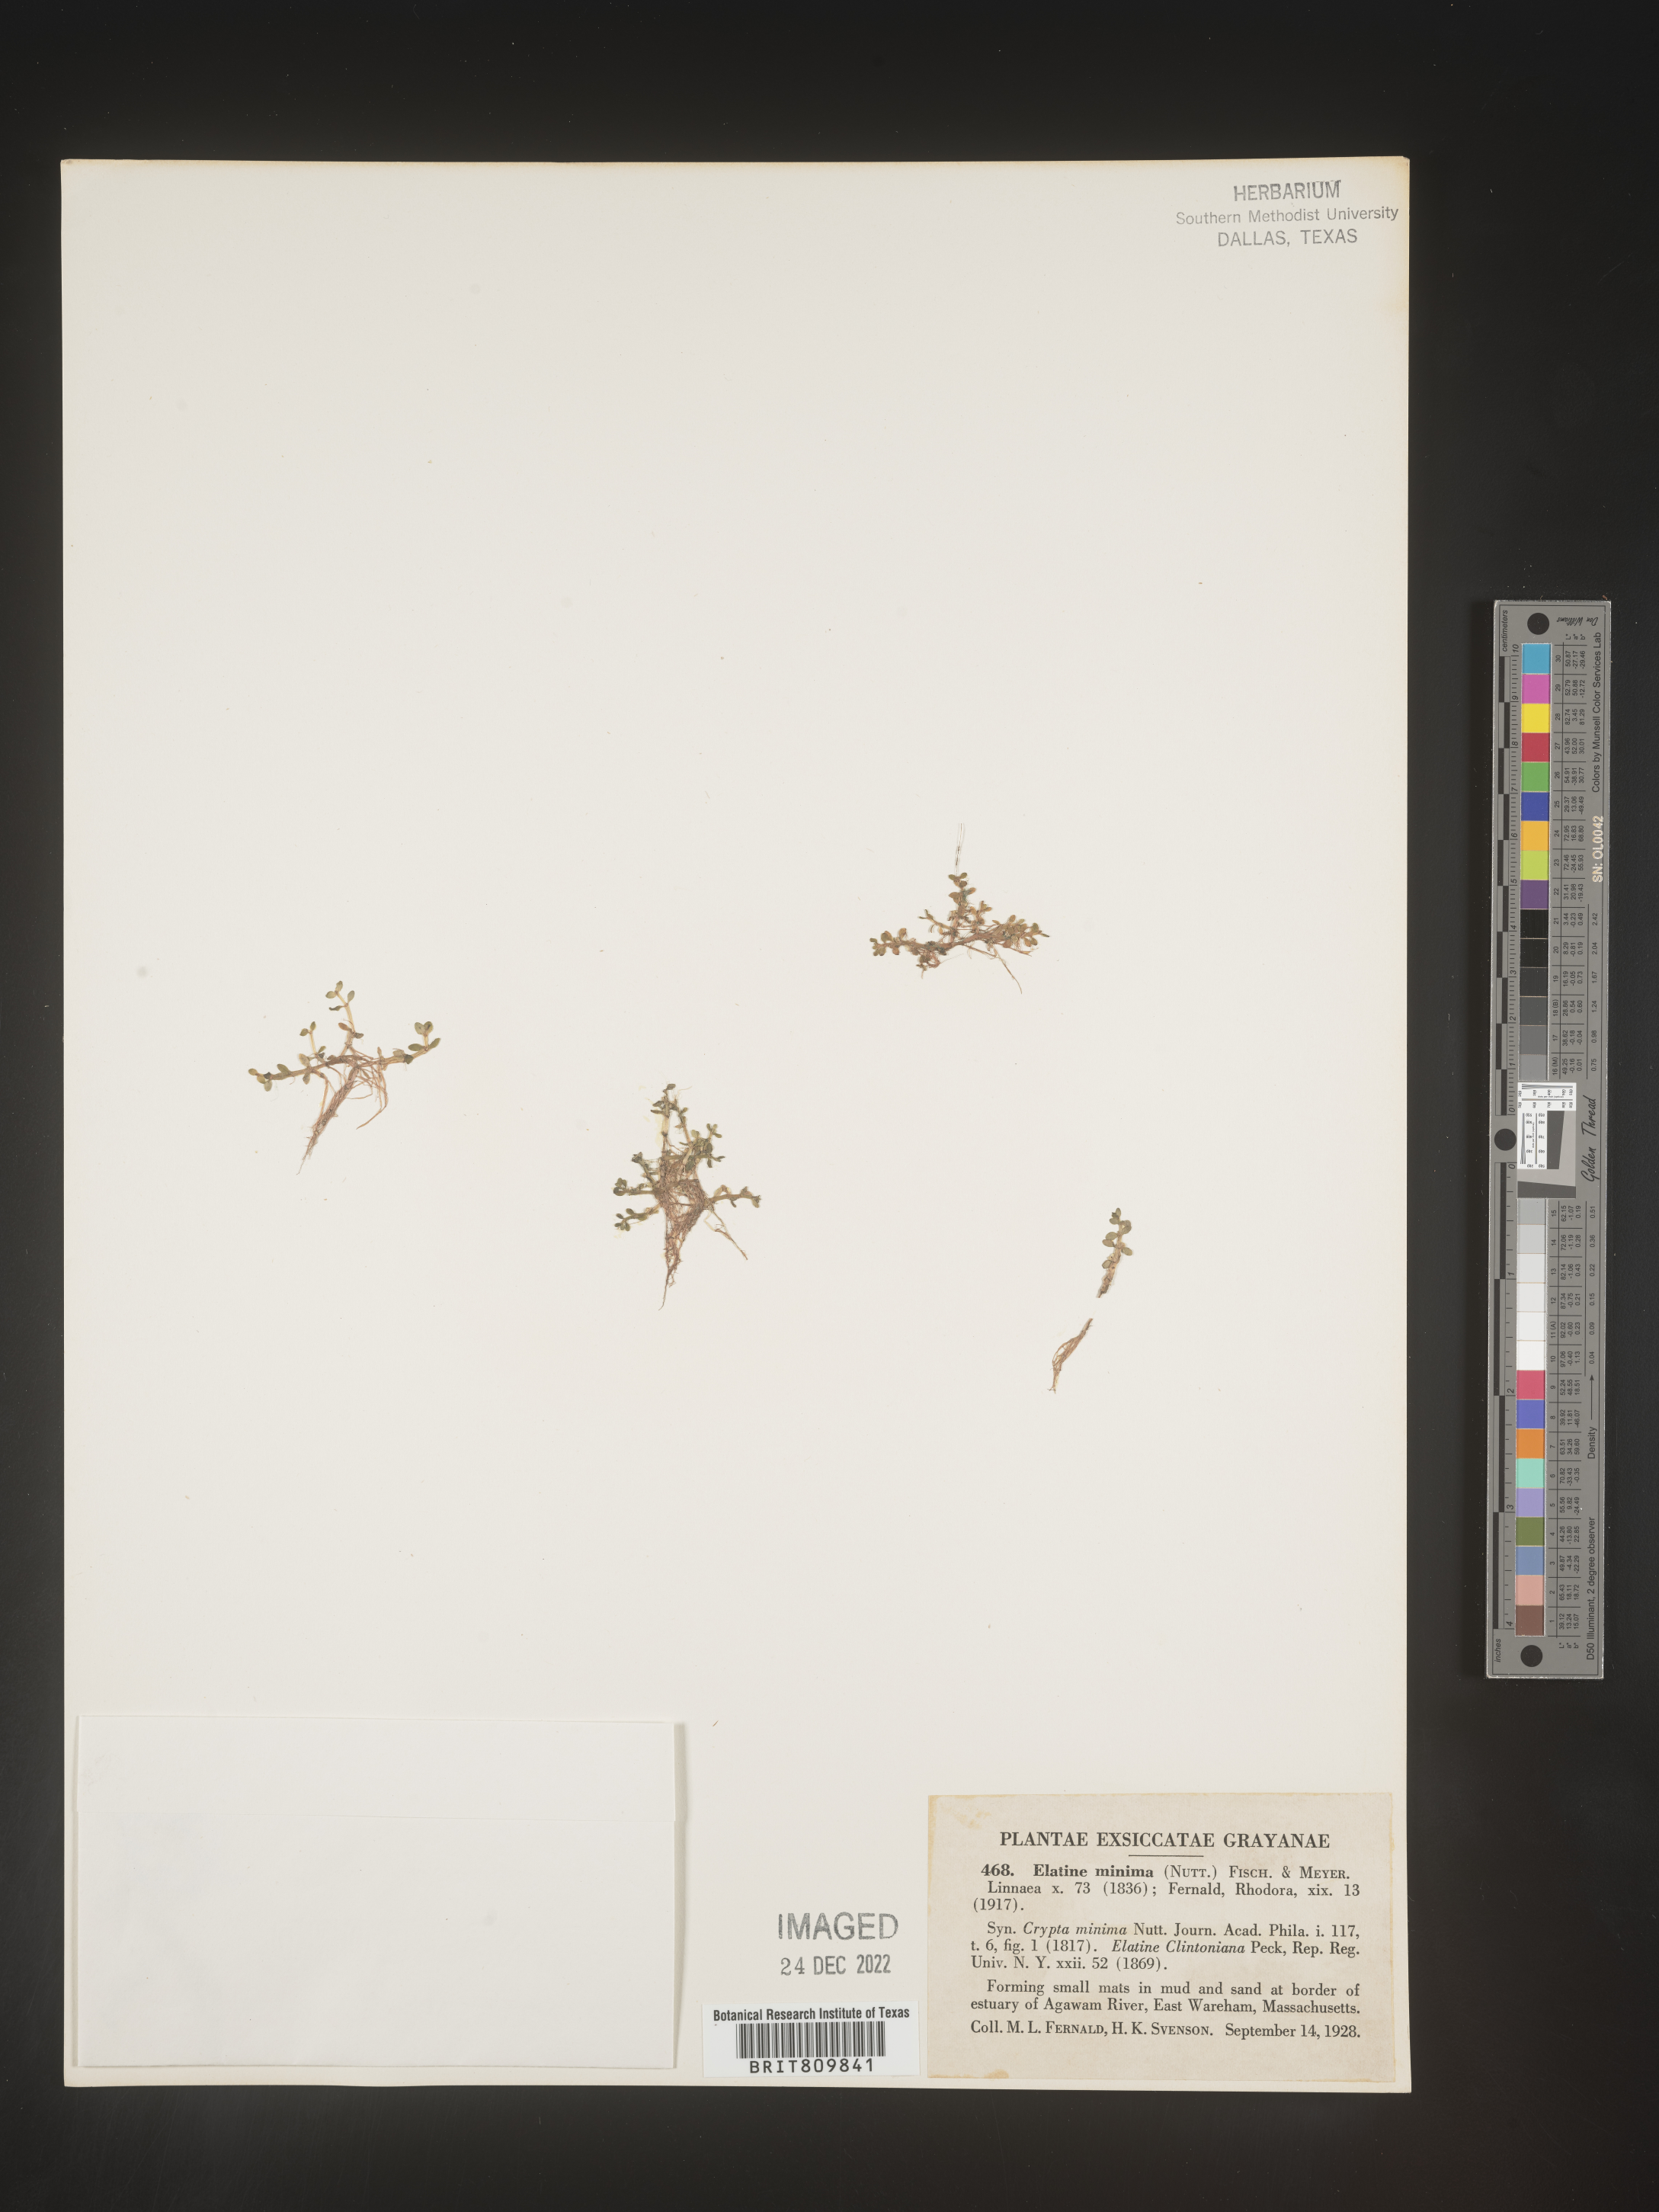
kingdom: Plantae
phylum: Tracheophyta
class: Magnoliopsida
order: Malpighiales
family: Elatinaceae
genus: Elatine
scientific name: Elatine
